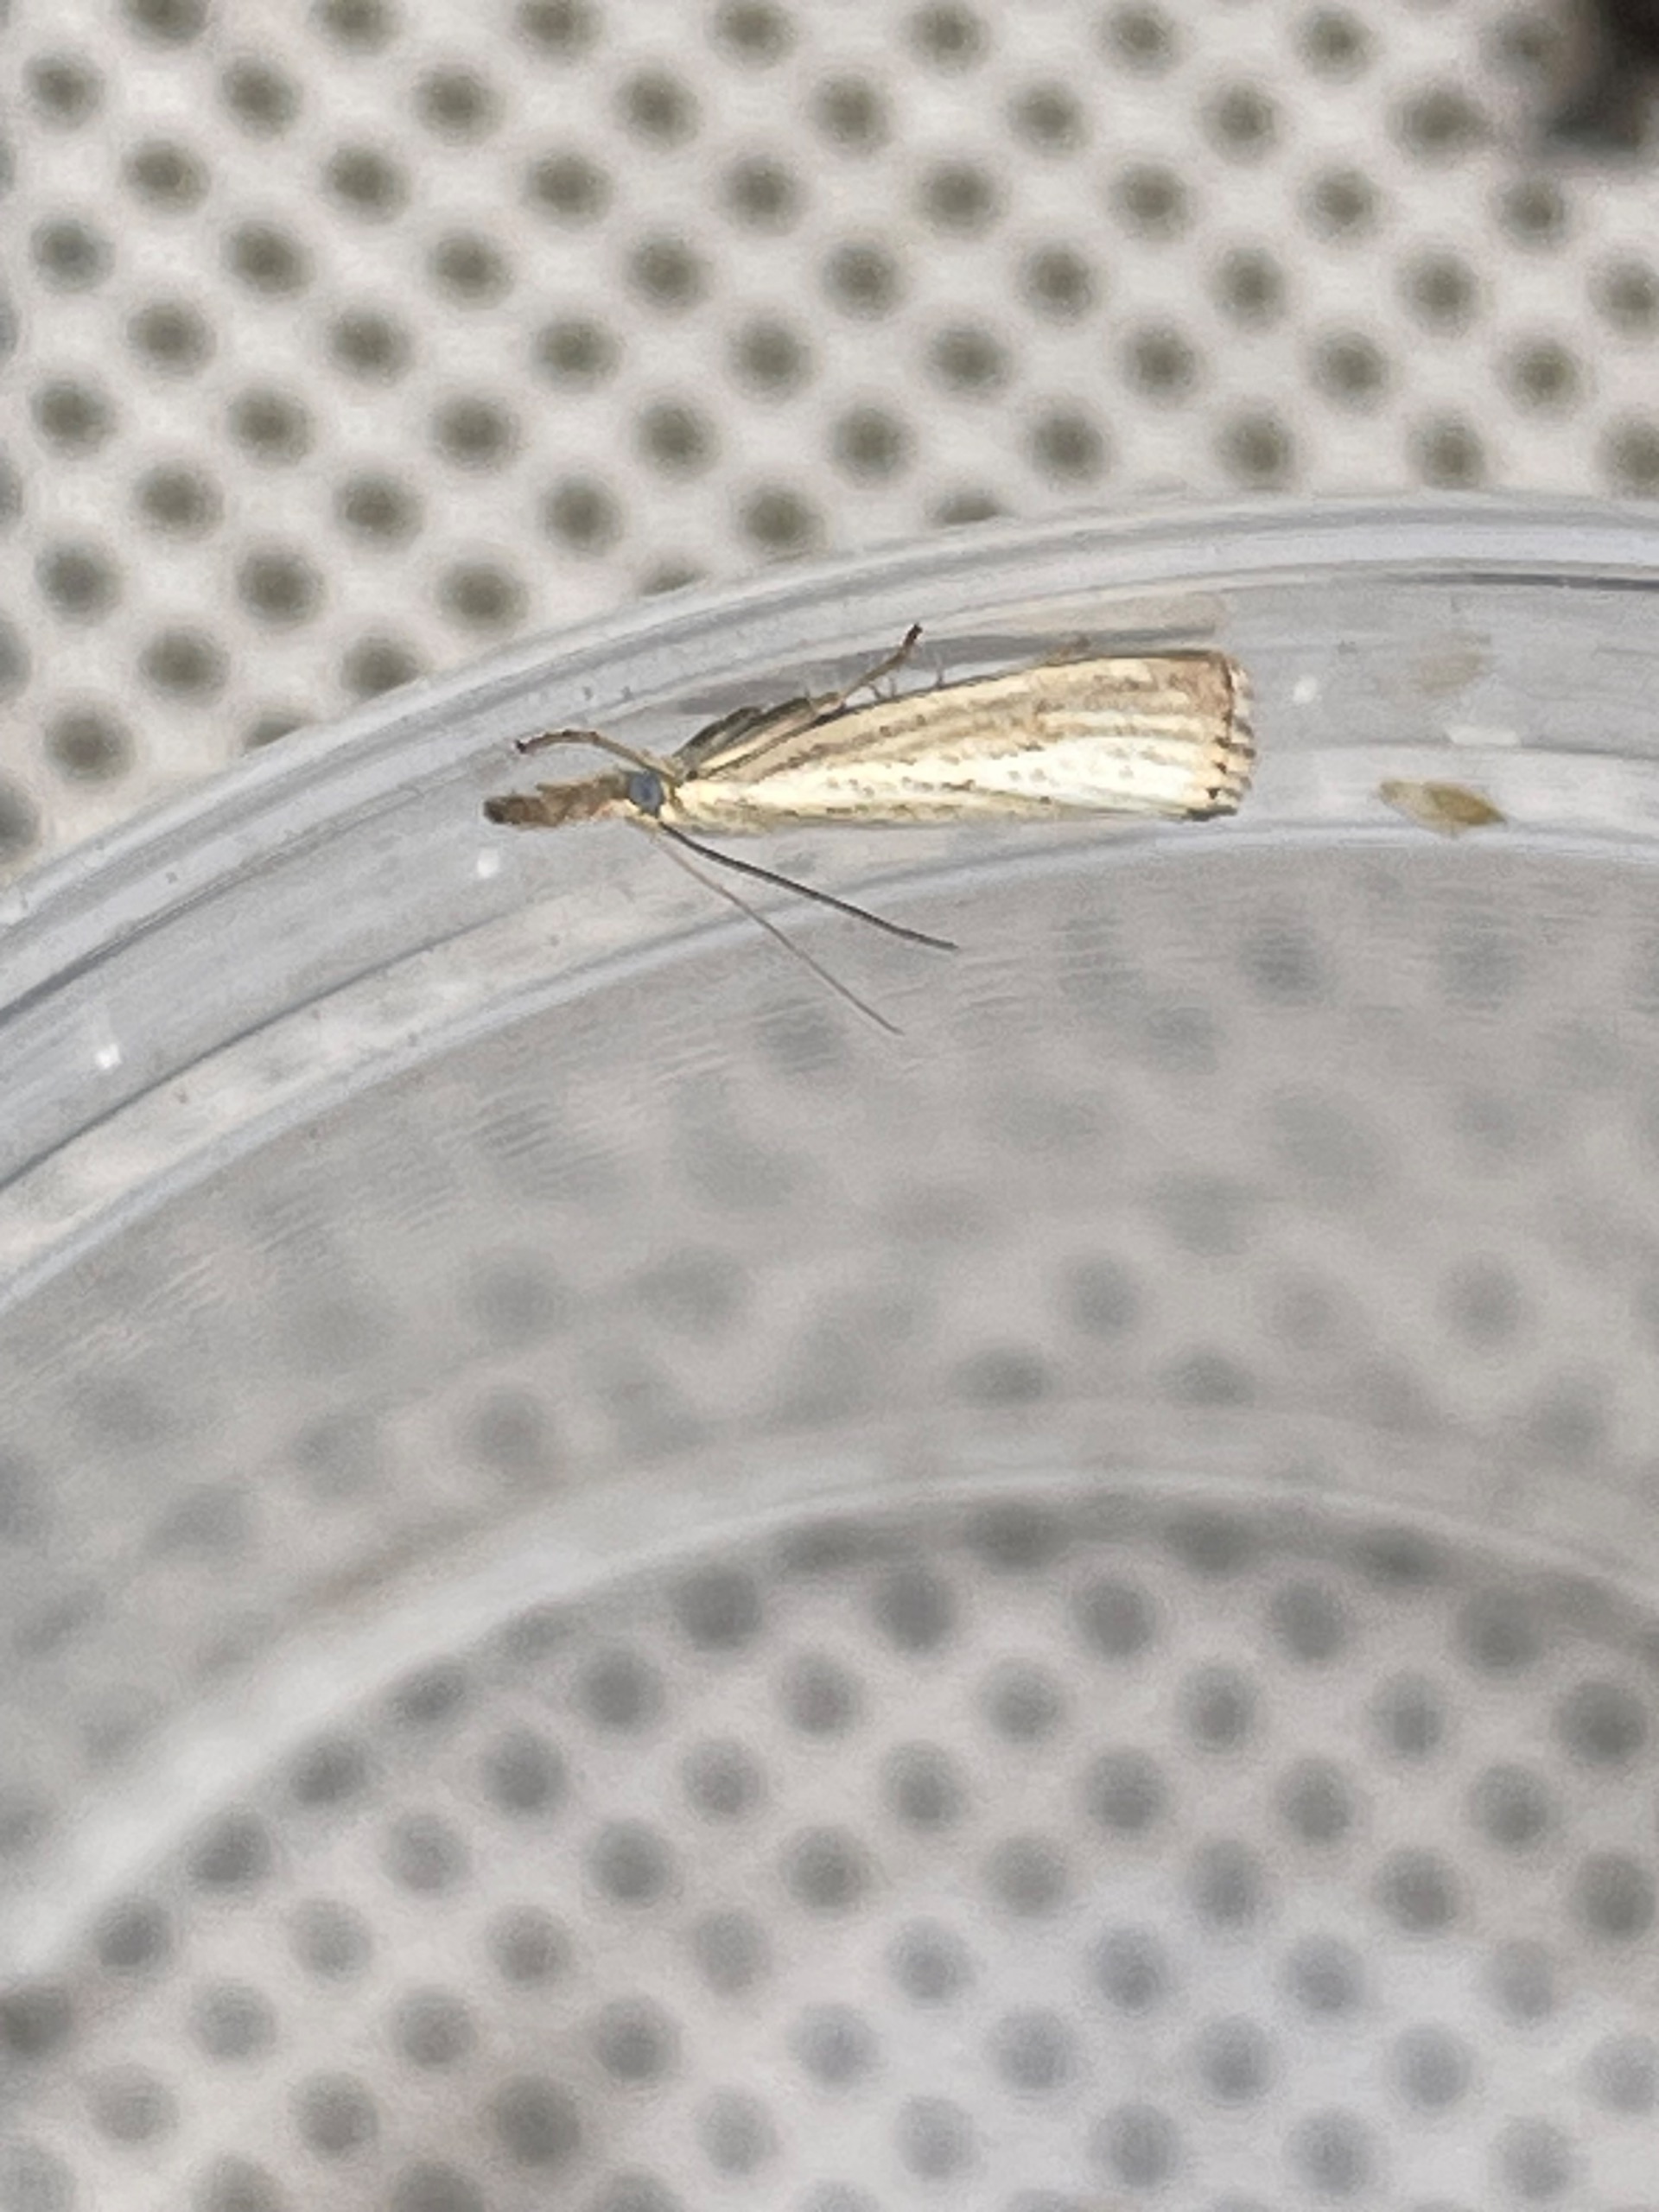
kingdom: Animalia
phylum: Arthropoda
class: Insecta
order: Lepidoptera
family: Crambidae
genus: Agriphila
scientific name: Agriphila straminella
